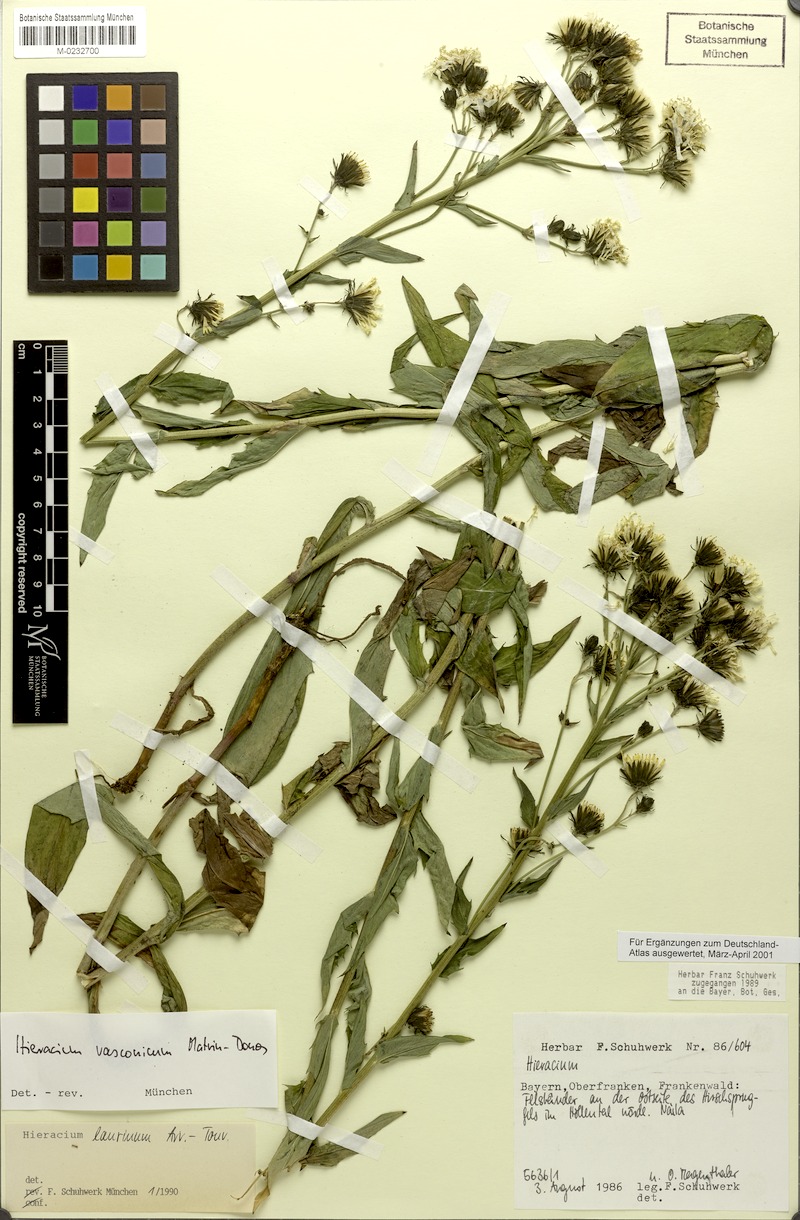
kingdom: Plantae
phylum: Tracheophyta
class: Magnoliopsida
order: Asterales
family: Asteraceae
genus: Hieracium
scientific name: Hieracium vasconicum
